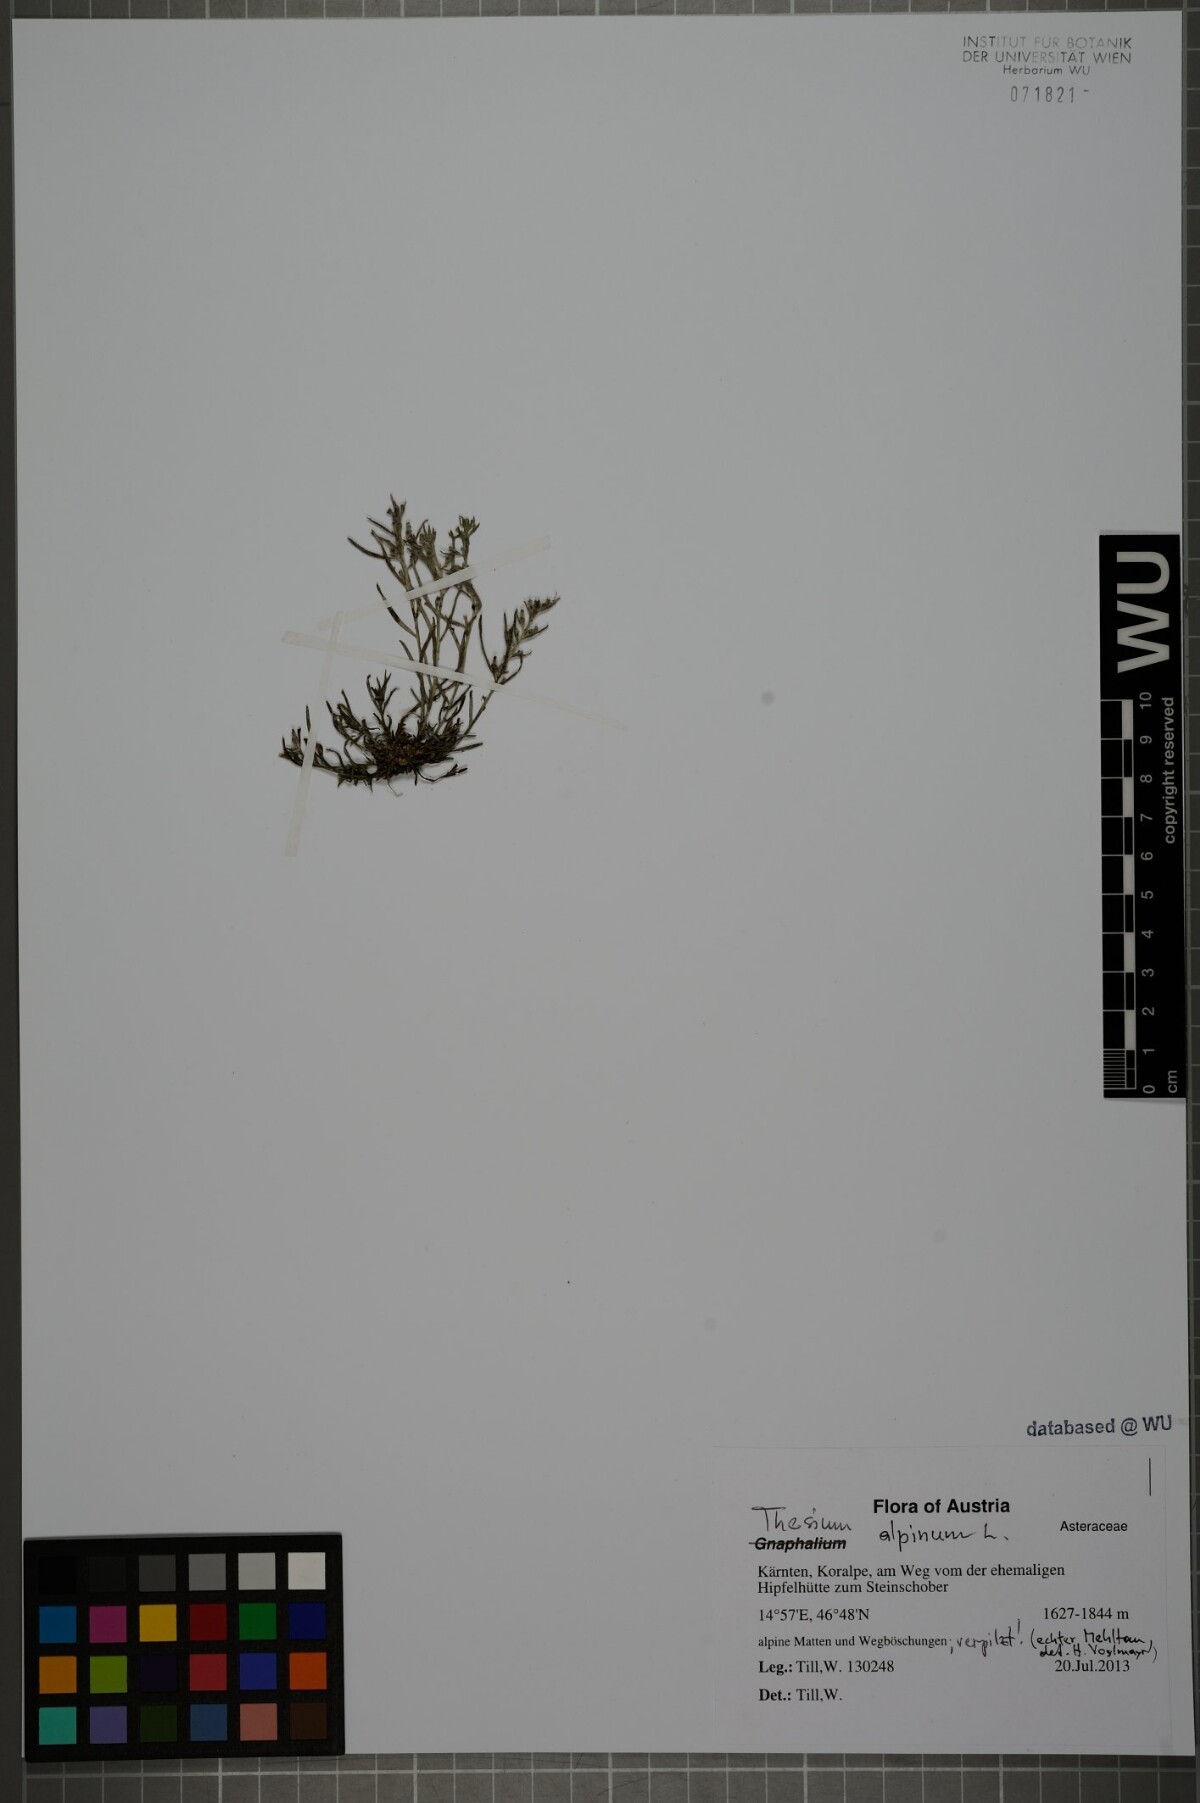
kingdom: Plantae
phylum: Tracheophyta
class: Magnoliopsida
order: Santalales
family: Thesiaceae
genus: Thesium
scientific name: Thesium alpinum
